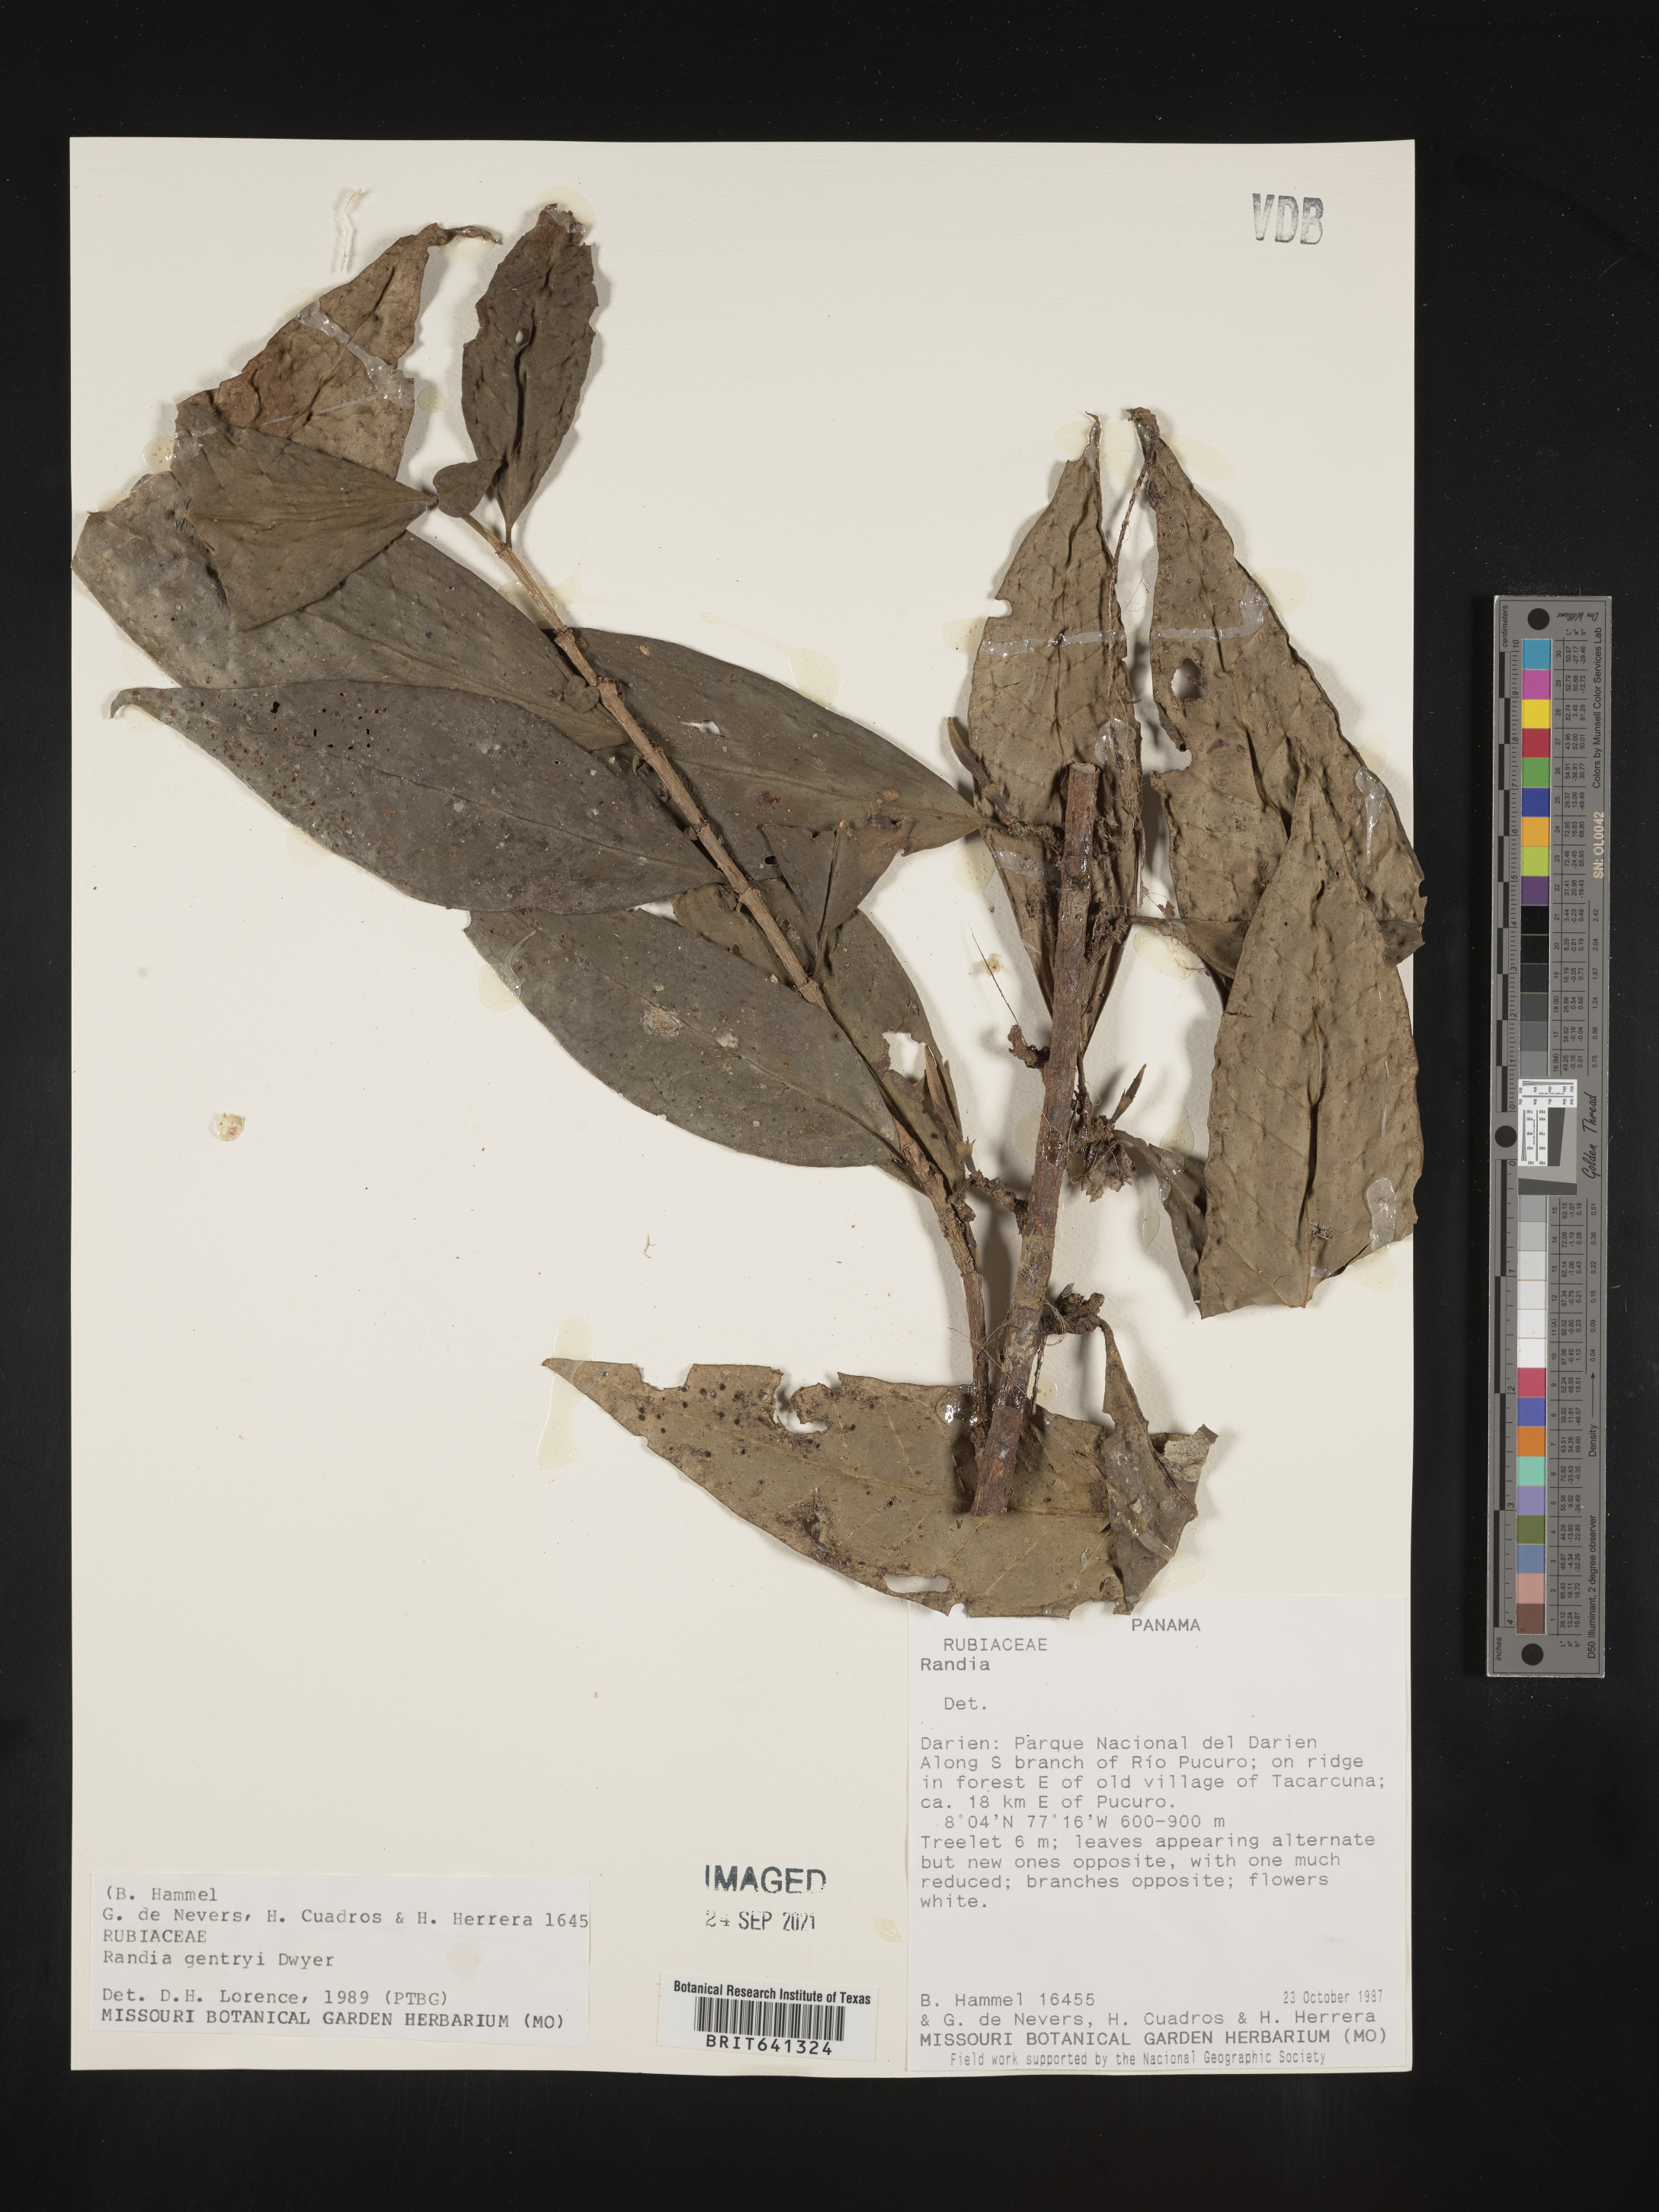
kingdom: Plantae
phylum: Tracheophyta
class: Magnoliopsida
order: Gentianales
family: Rubiaceae
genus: Psychotria
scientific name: Psychotria
